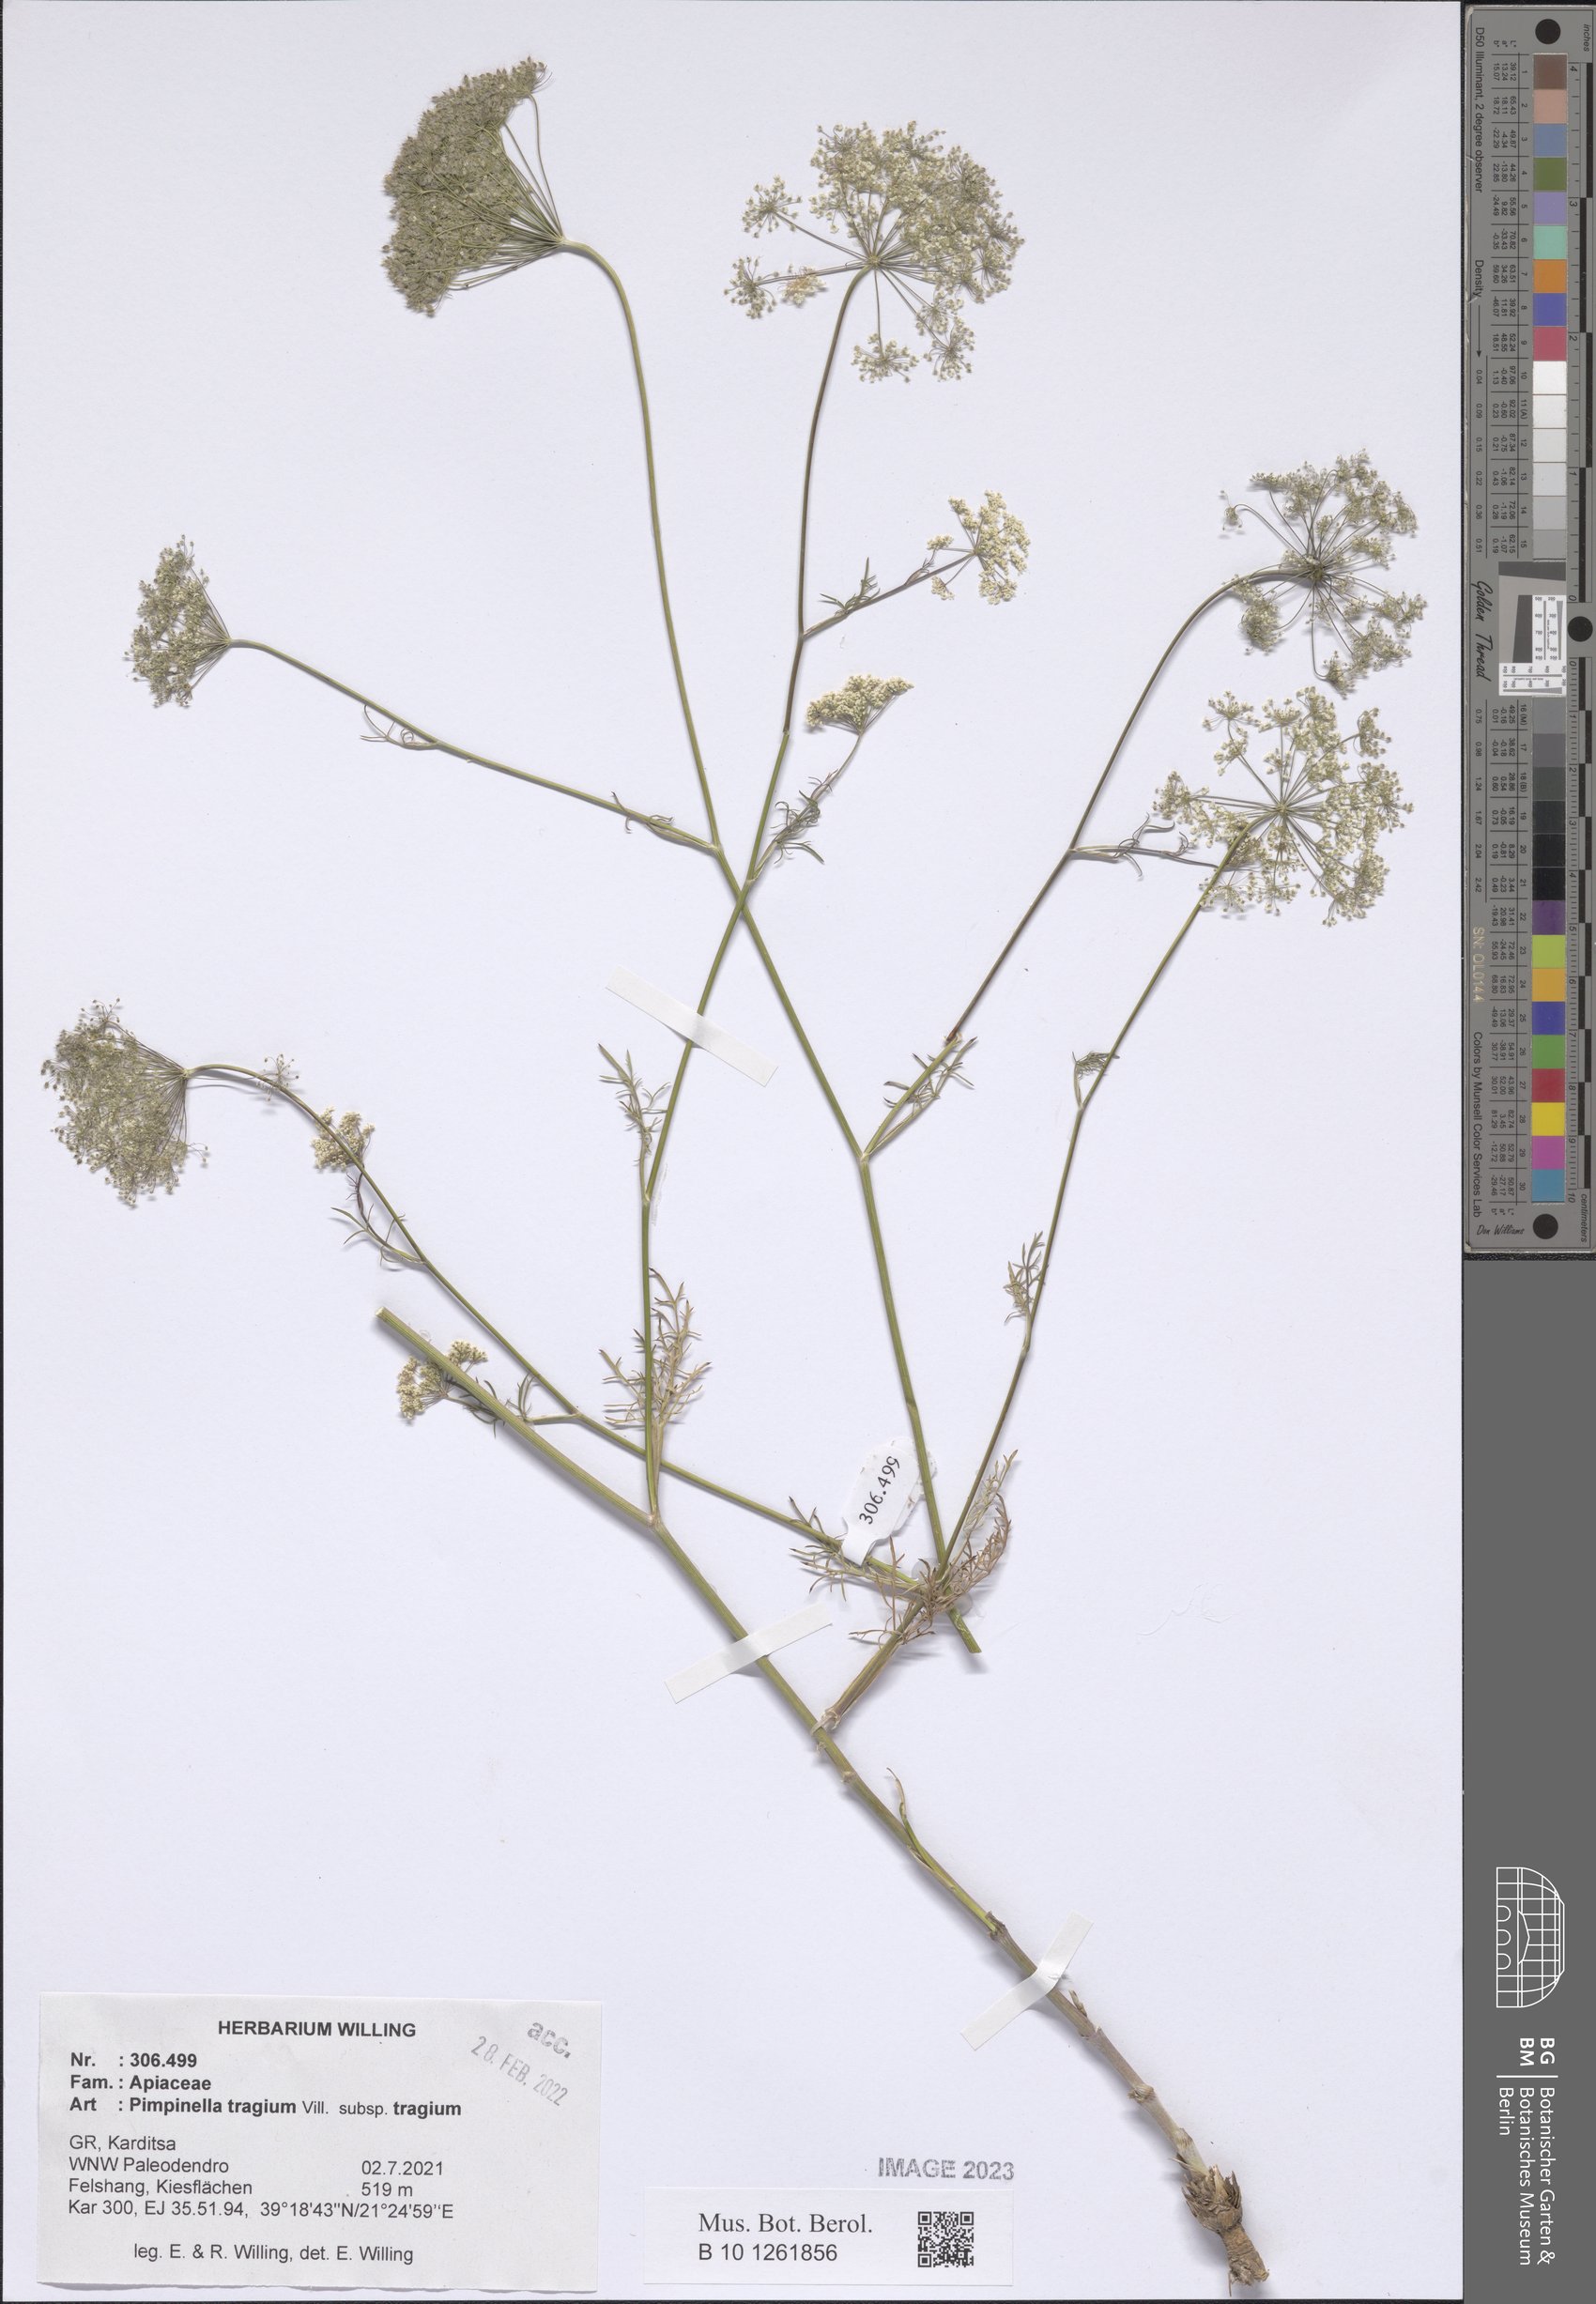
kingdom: Plantae
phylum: Tracheophyta
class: Magnoliopsida
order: Apiales
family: Apiaceae
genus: Pimpinella
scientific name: Pimpinella tragium
